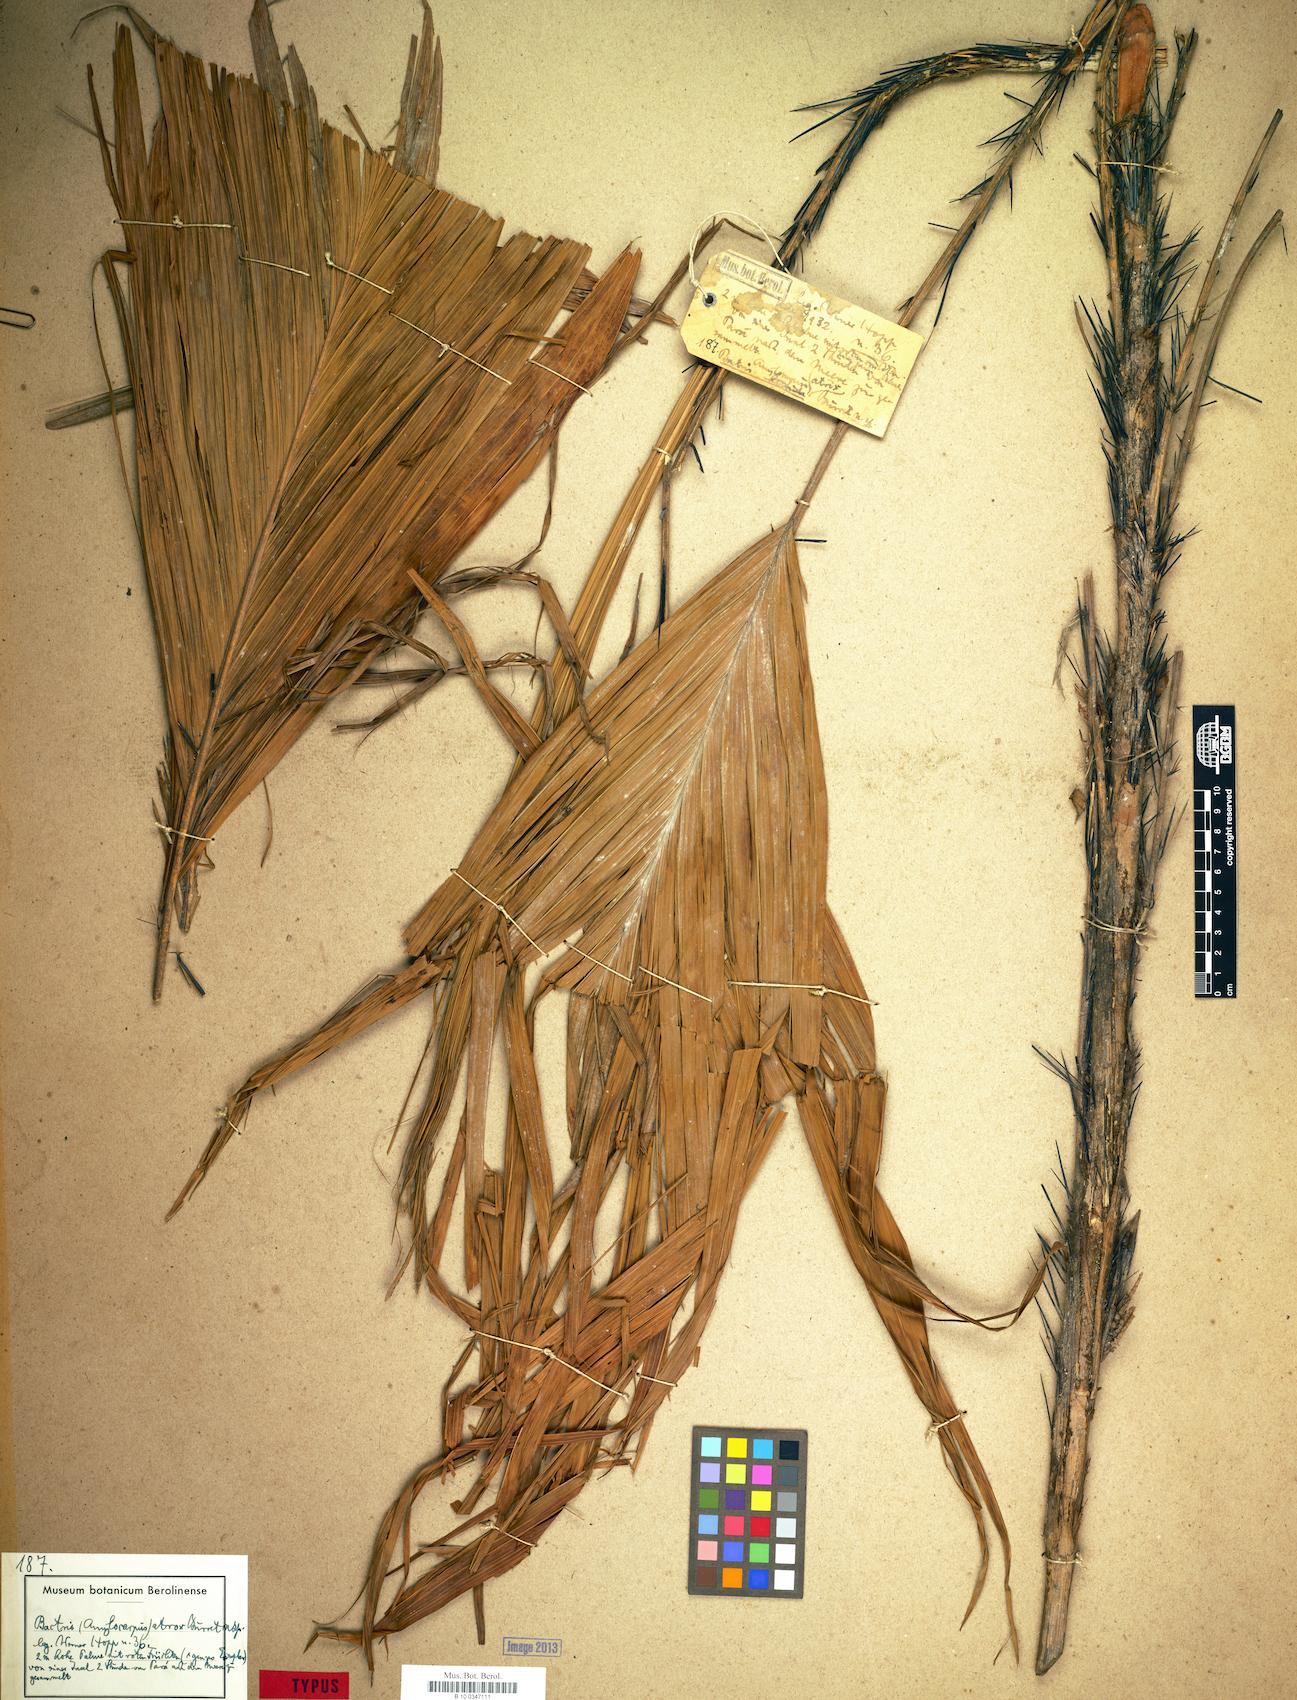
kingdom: Plantae
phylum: Tracheophyta
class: Liliopsida
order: Arecales
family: Arecaceae
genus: Bactris
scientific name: Bactris hirta
